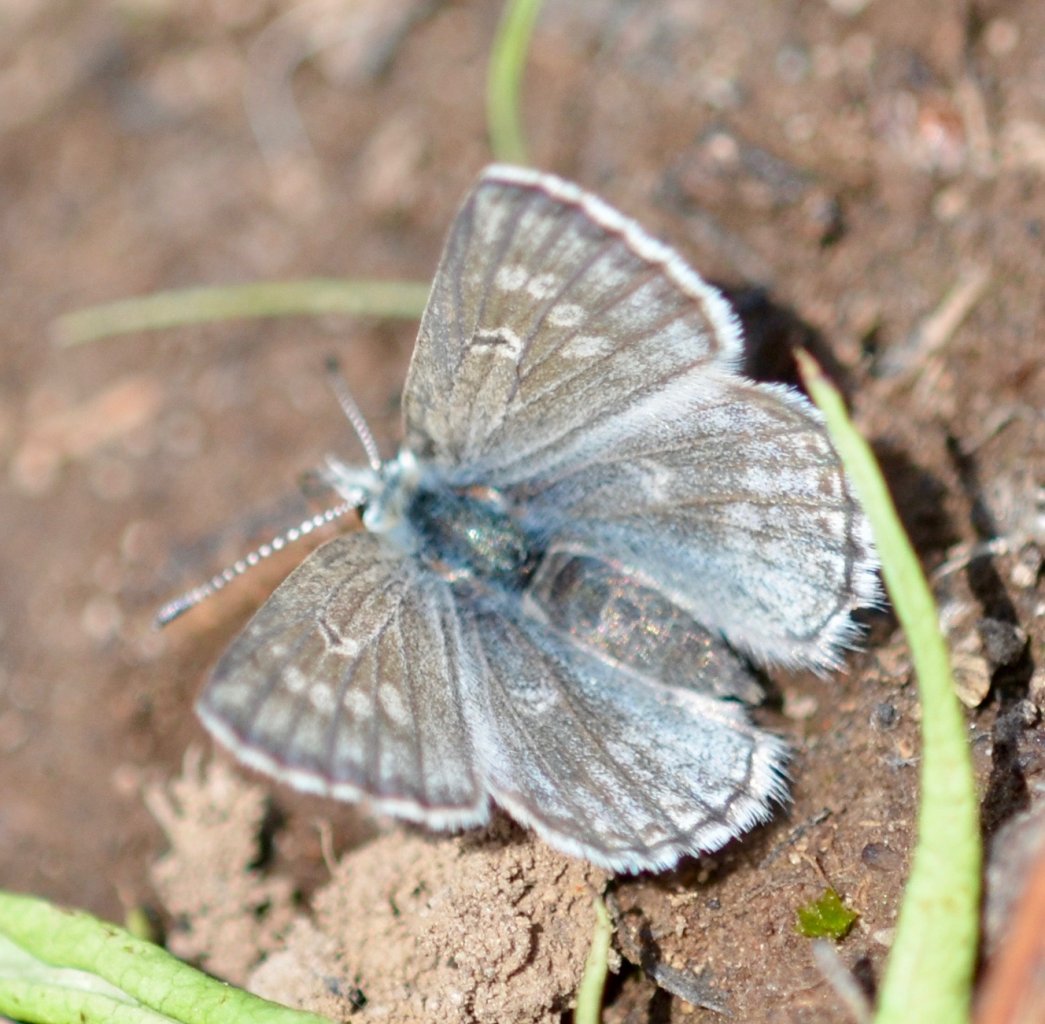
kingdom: Animalia
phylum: Arthropoda
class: Insecta
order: Lepidoptera
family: Lycaenidae
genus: Agriades
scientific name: Agriades glandon
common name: Arctic Blue
